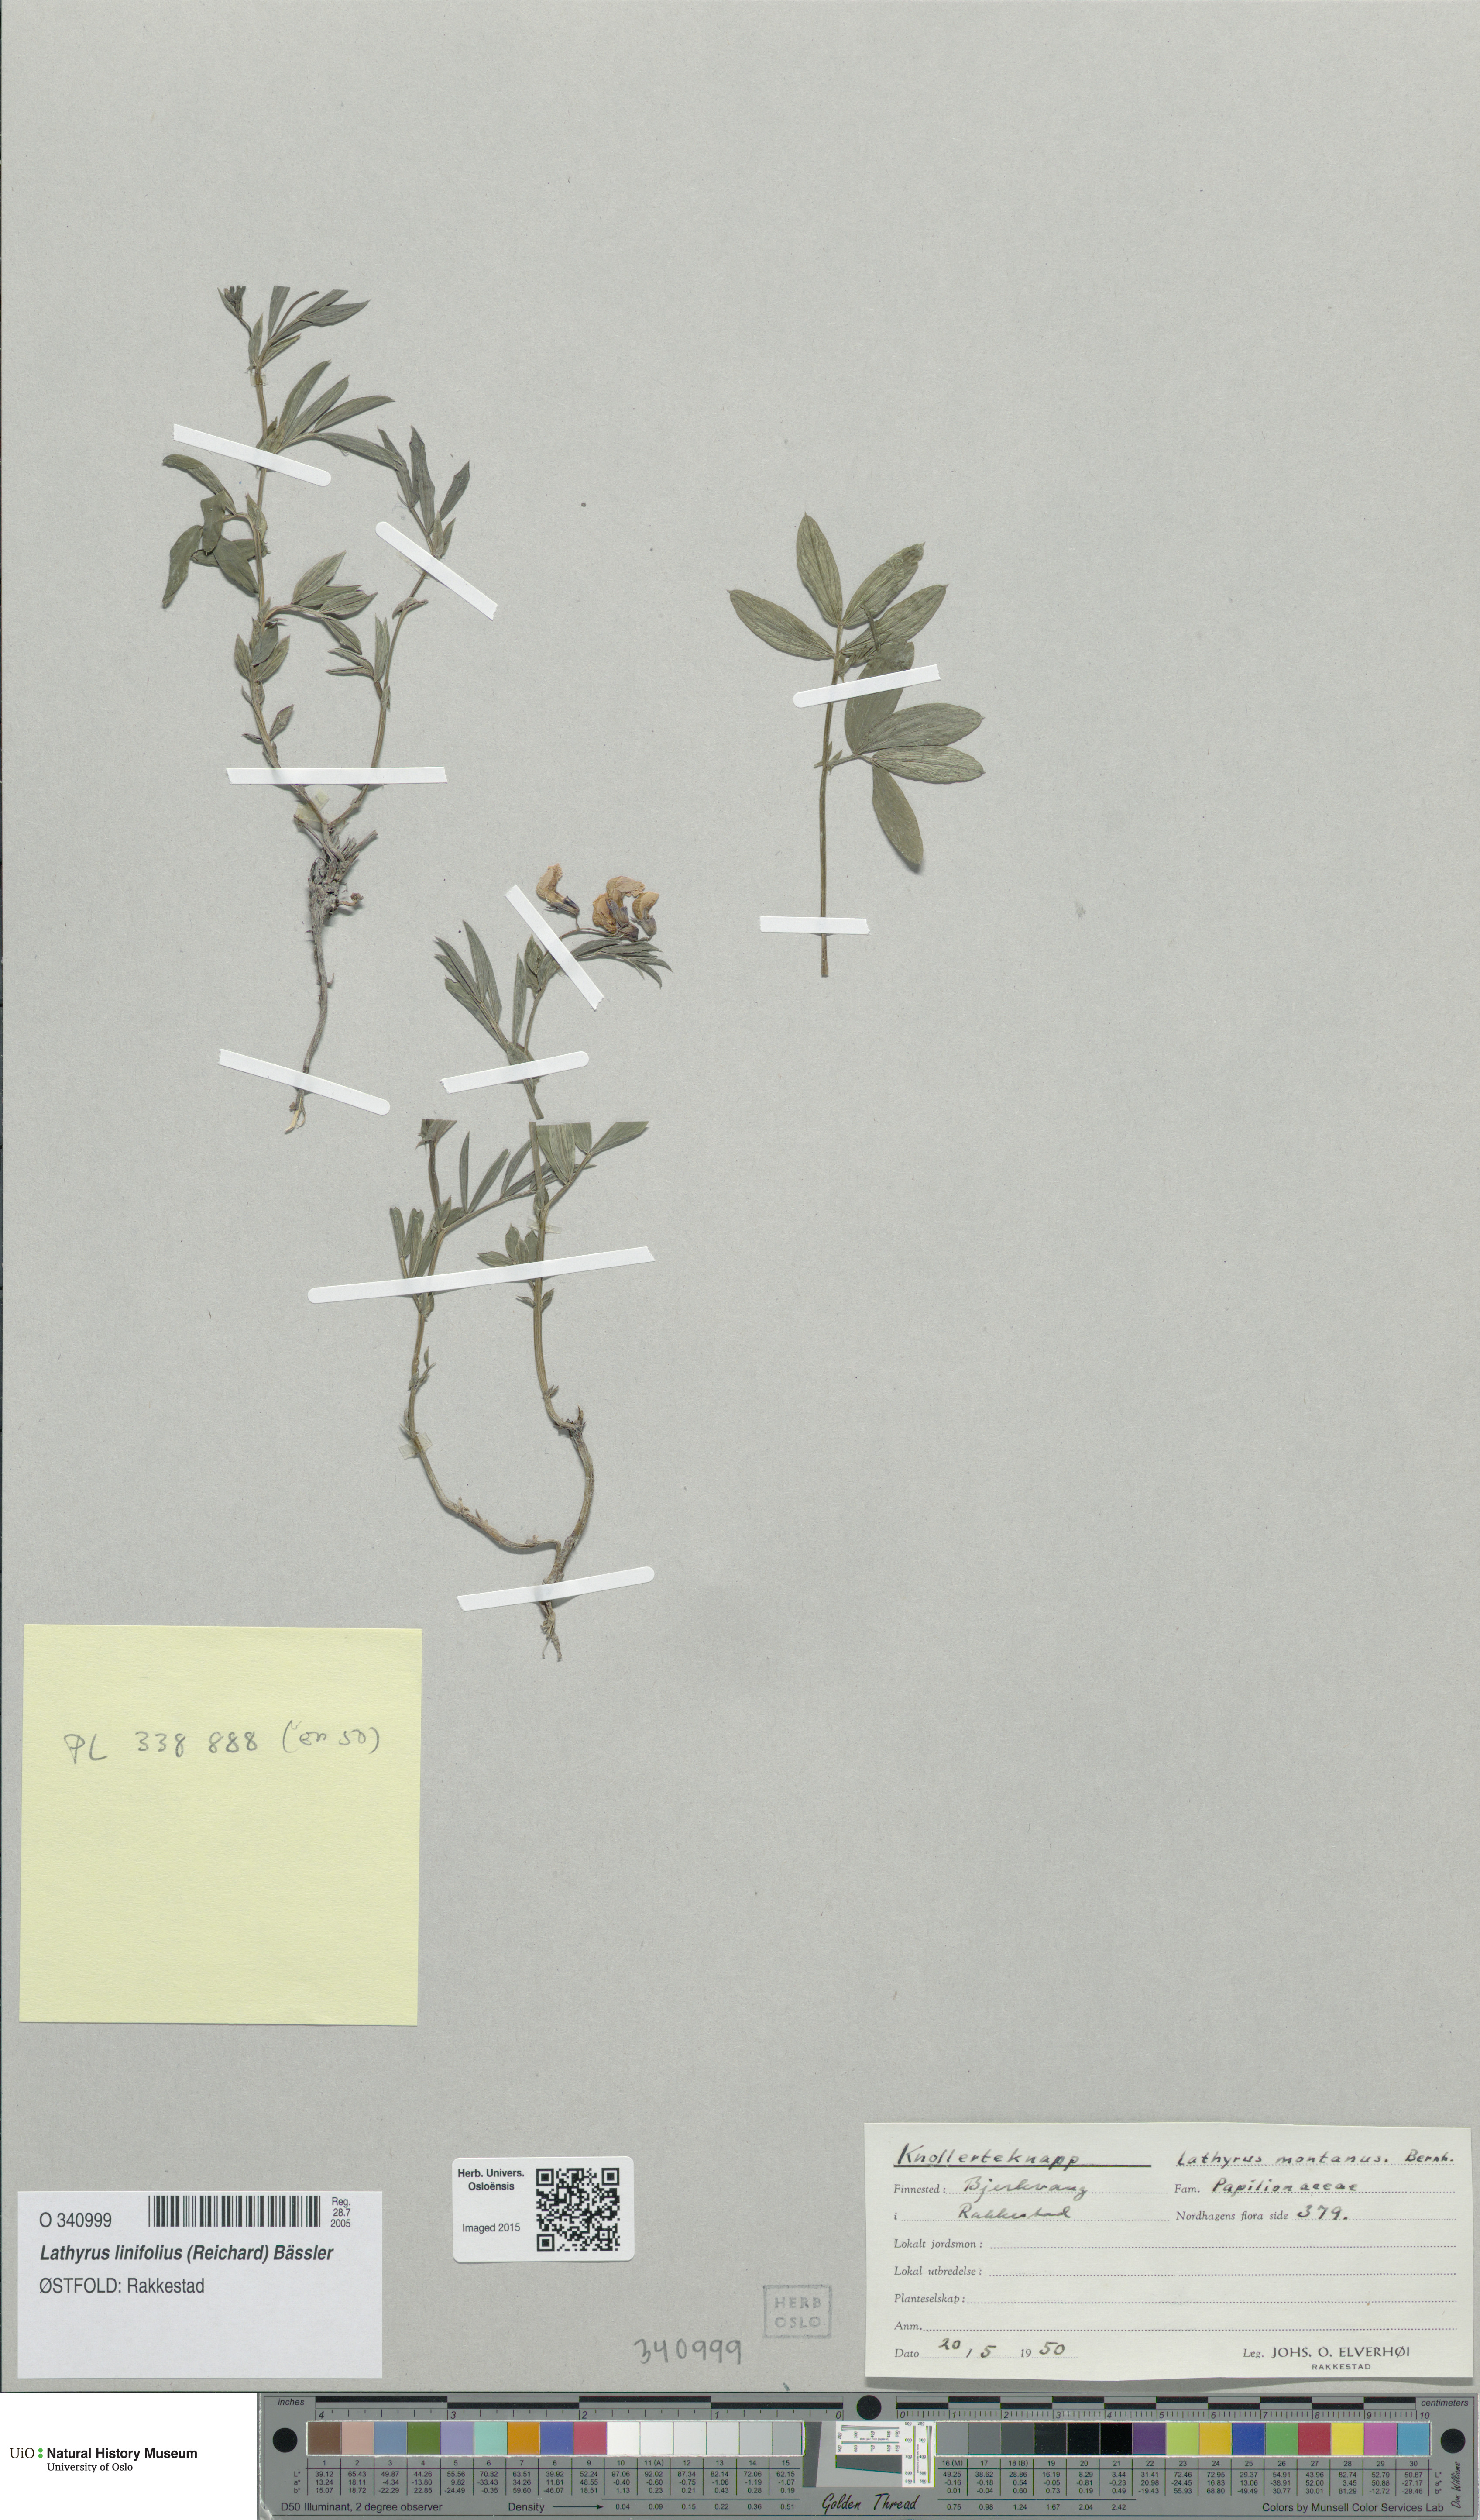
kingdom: Plantae
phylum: Tracheophyta
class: Magnoliopsida
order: Fabales
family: Fabaceae
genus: Lathyrus
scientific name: Lathyrus linifolius
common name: Bitter-vetch
